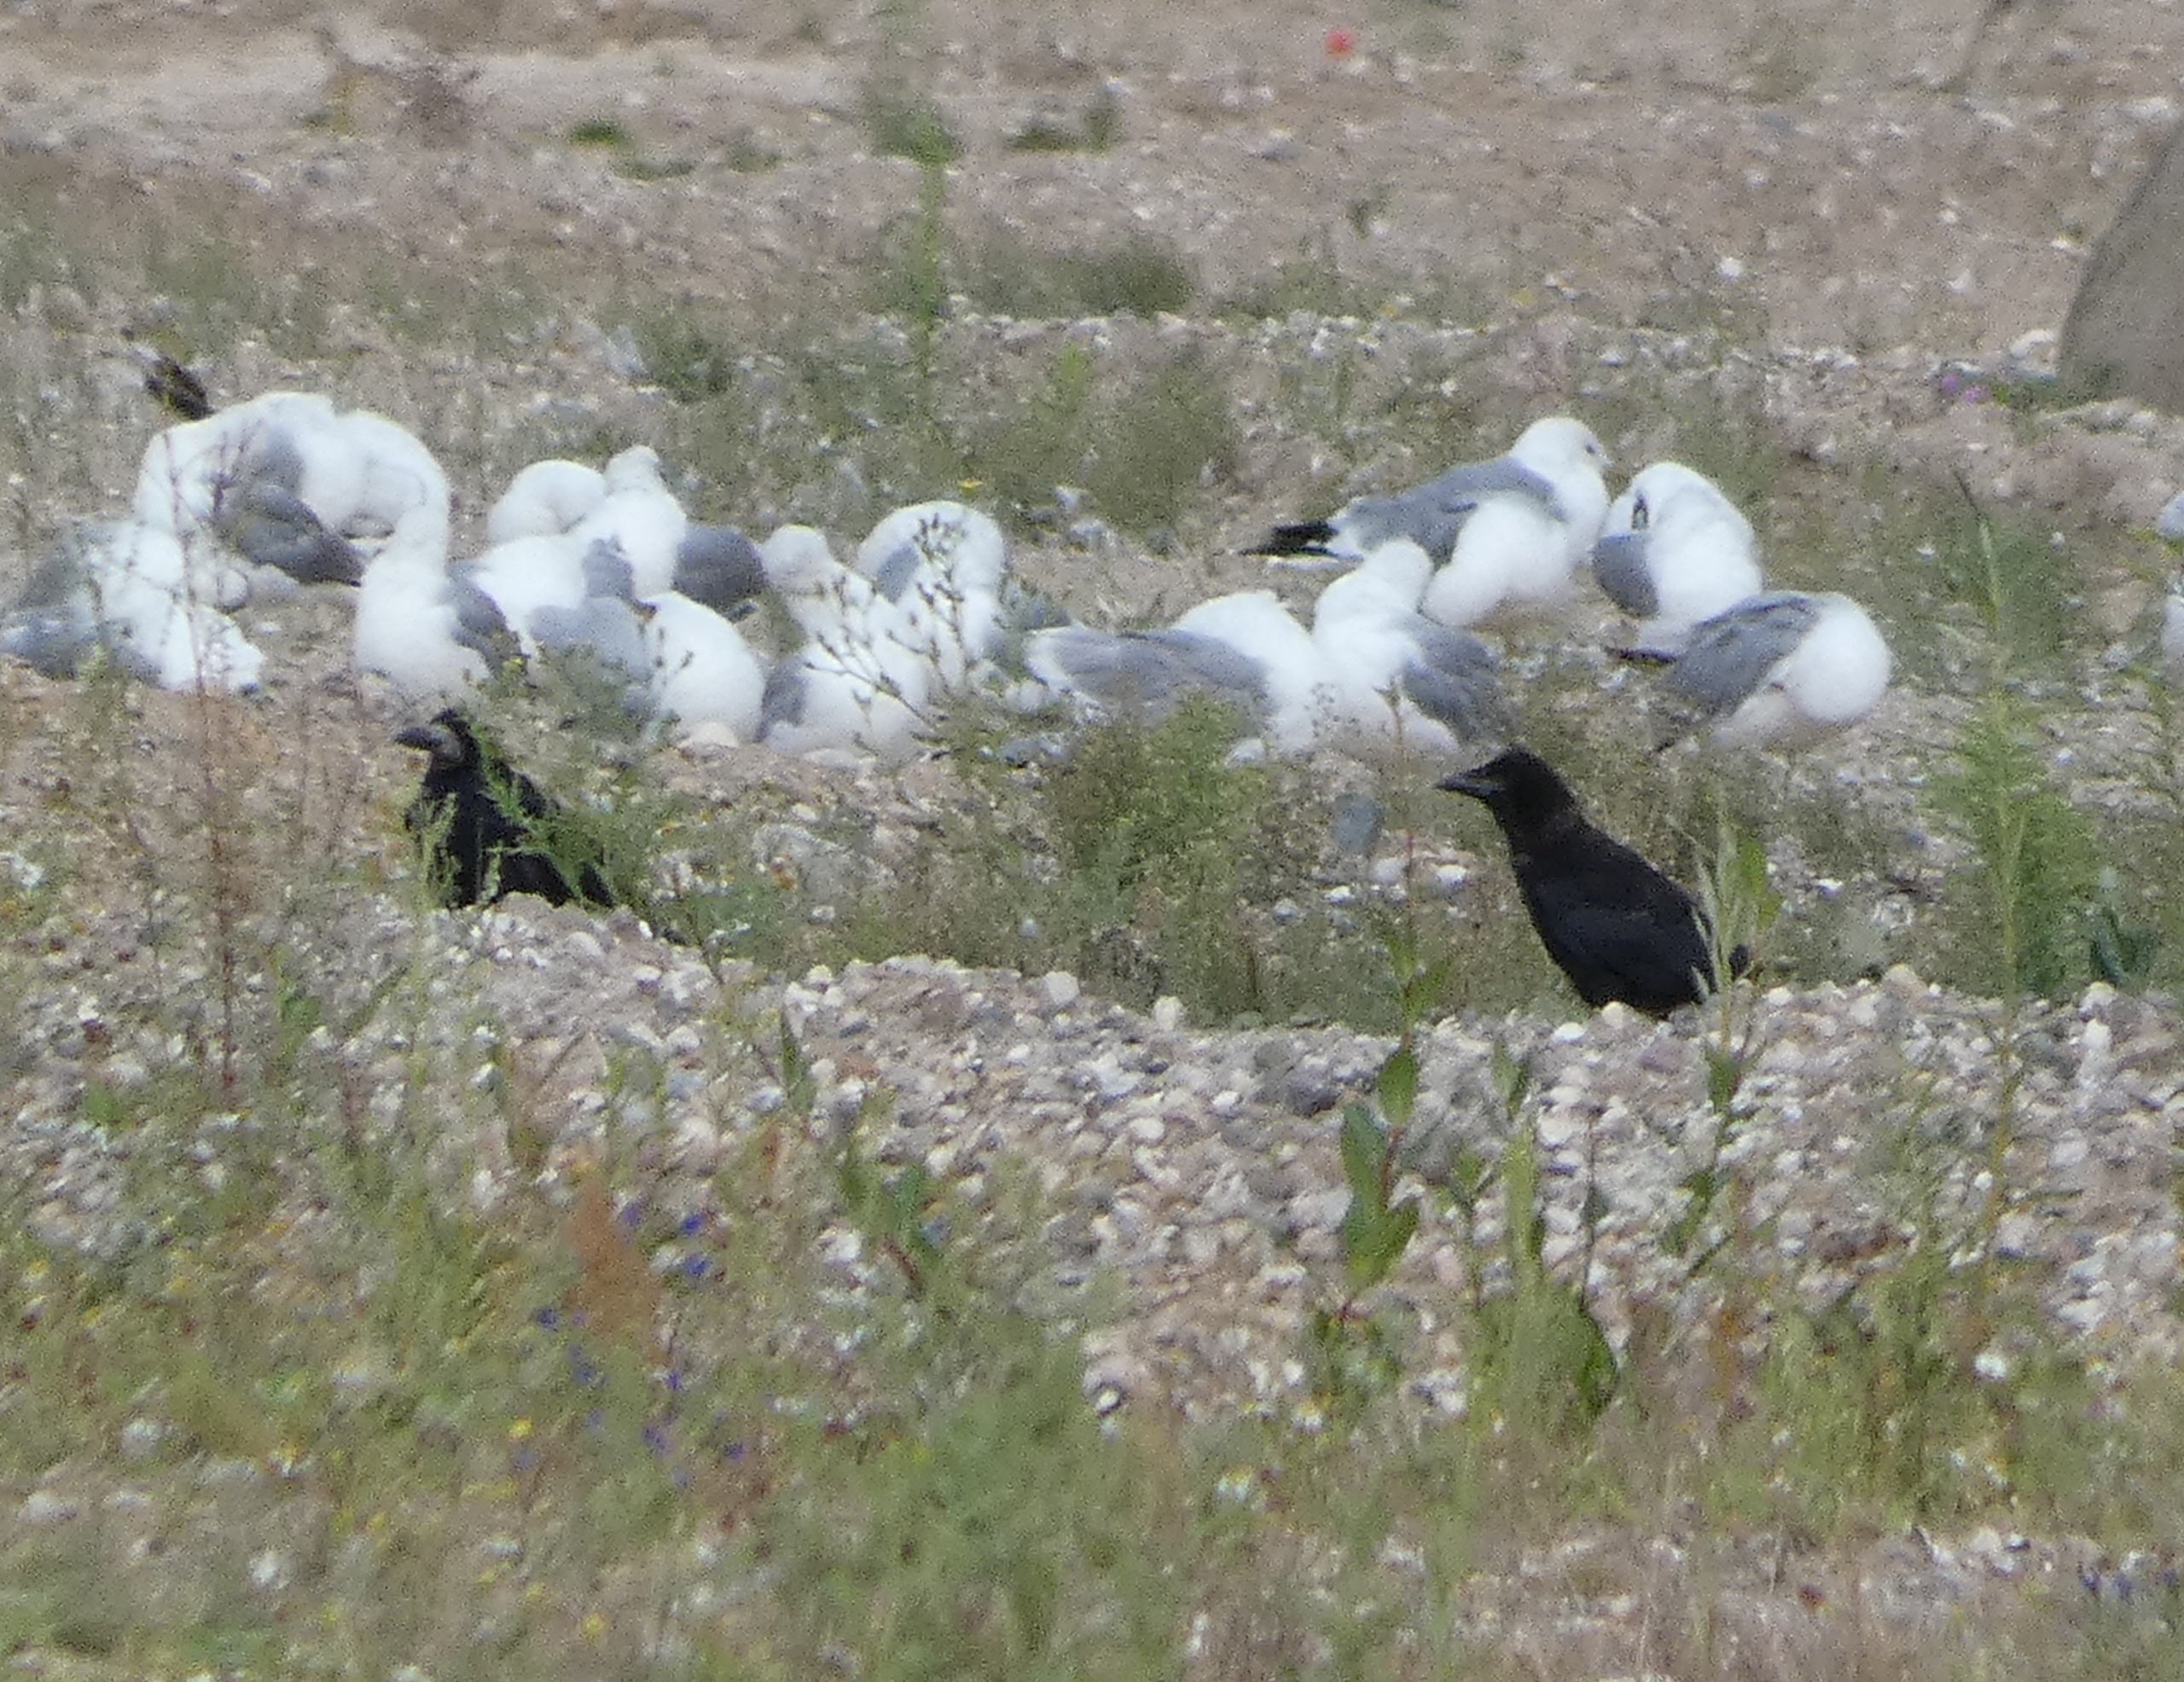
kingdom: Animalia
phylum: Chordata
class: Aves
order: Passeriformes
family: Corvidae
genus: Corvus
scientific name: Corvus frugilegus
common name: Råge
